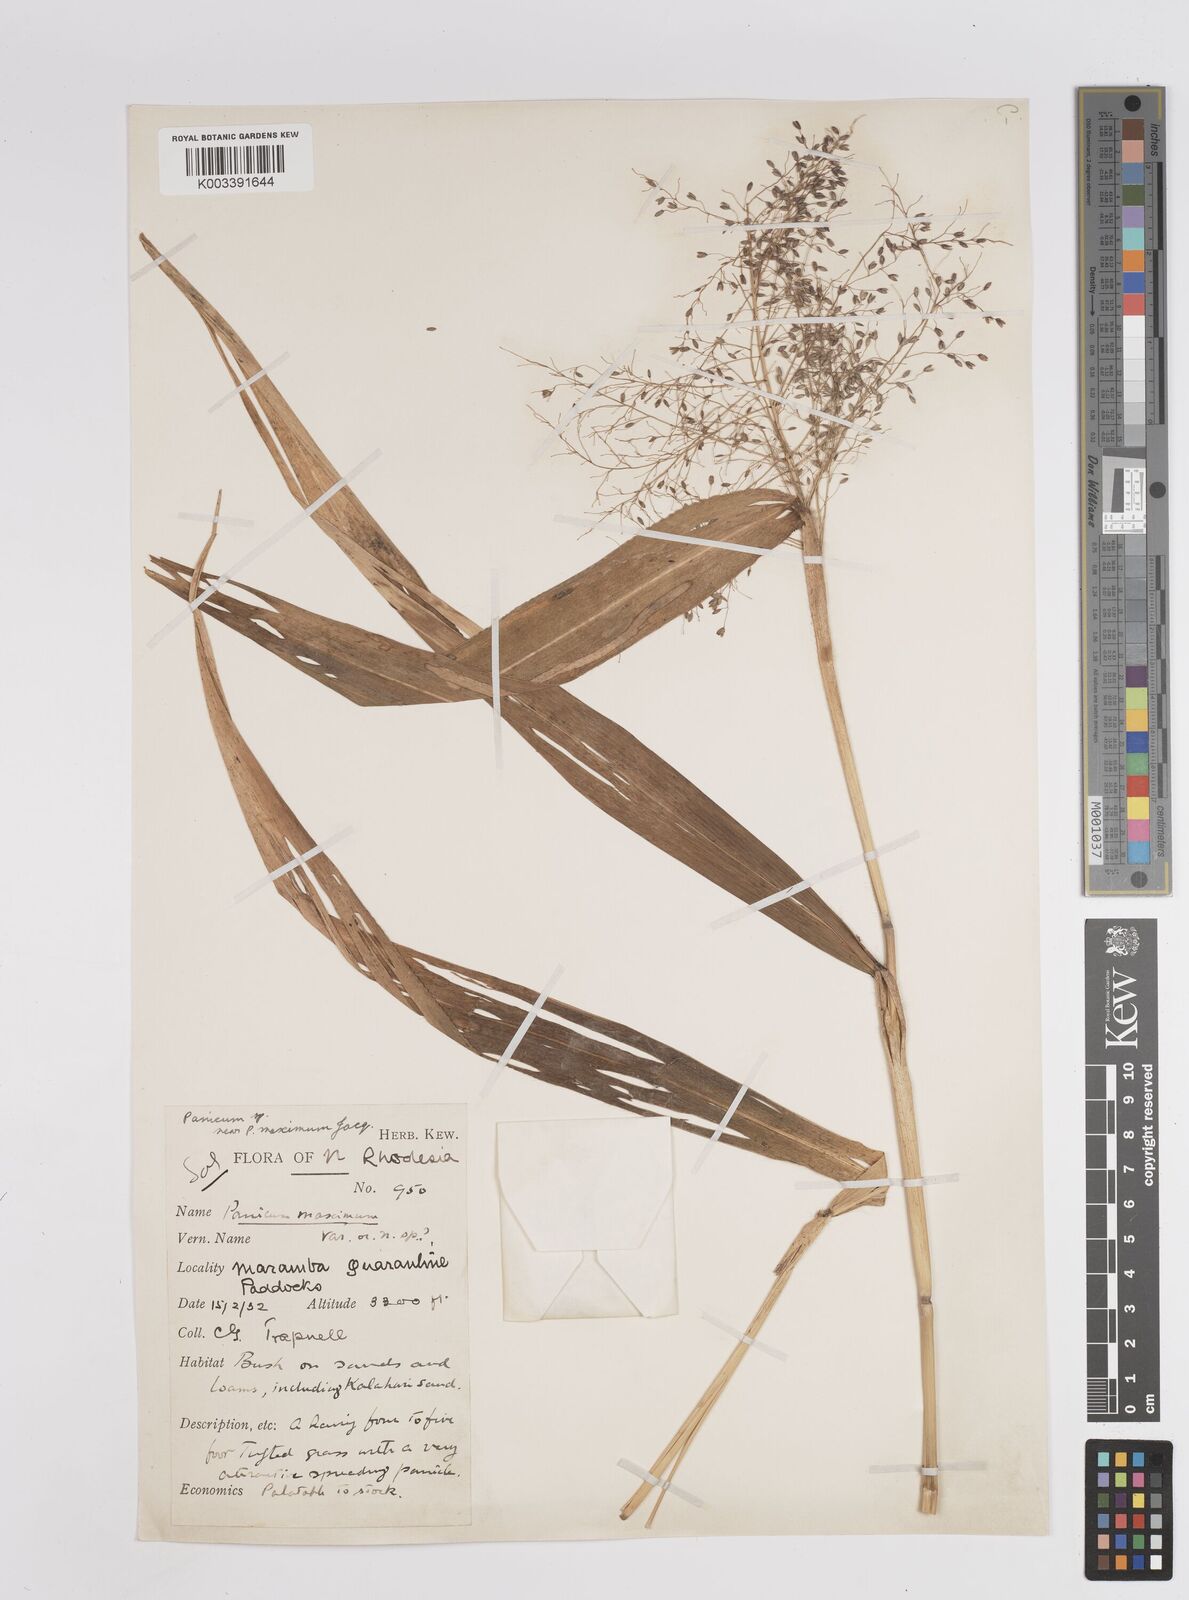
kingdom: Plantae
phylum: Tracheophyta
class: Liliopsida
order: Poales
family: Poaceae
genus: Megathyrsus
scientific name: Megathyrsus maximus
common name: Guineagrass
